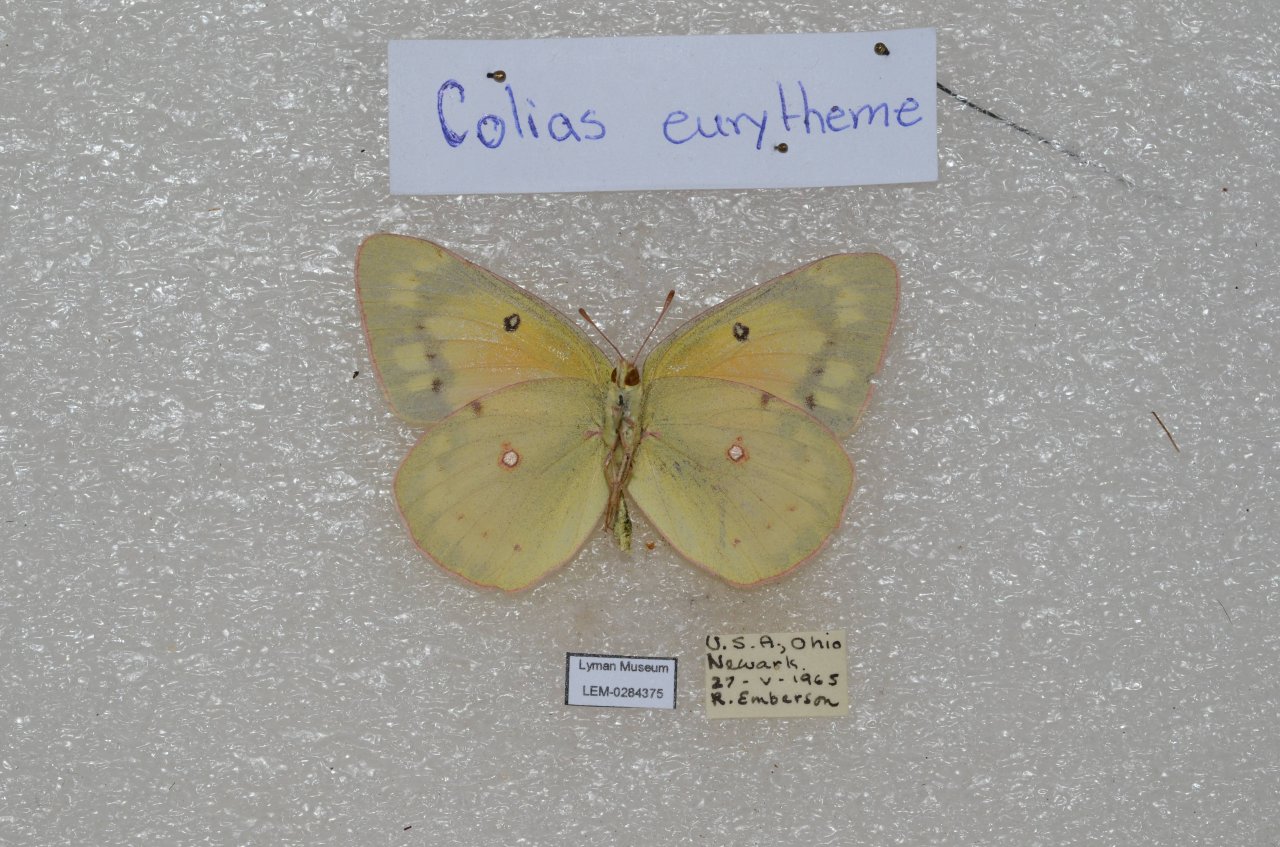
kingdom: Animalia
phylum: Arthropoda
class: Insecta
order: Lepidoptera
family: Pieridae
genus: Colias
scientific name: Colias eurytheme
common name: Orange Sulphur
